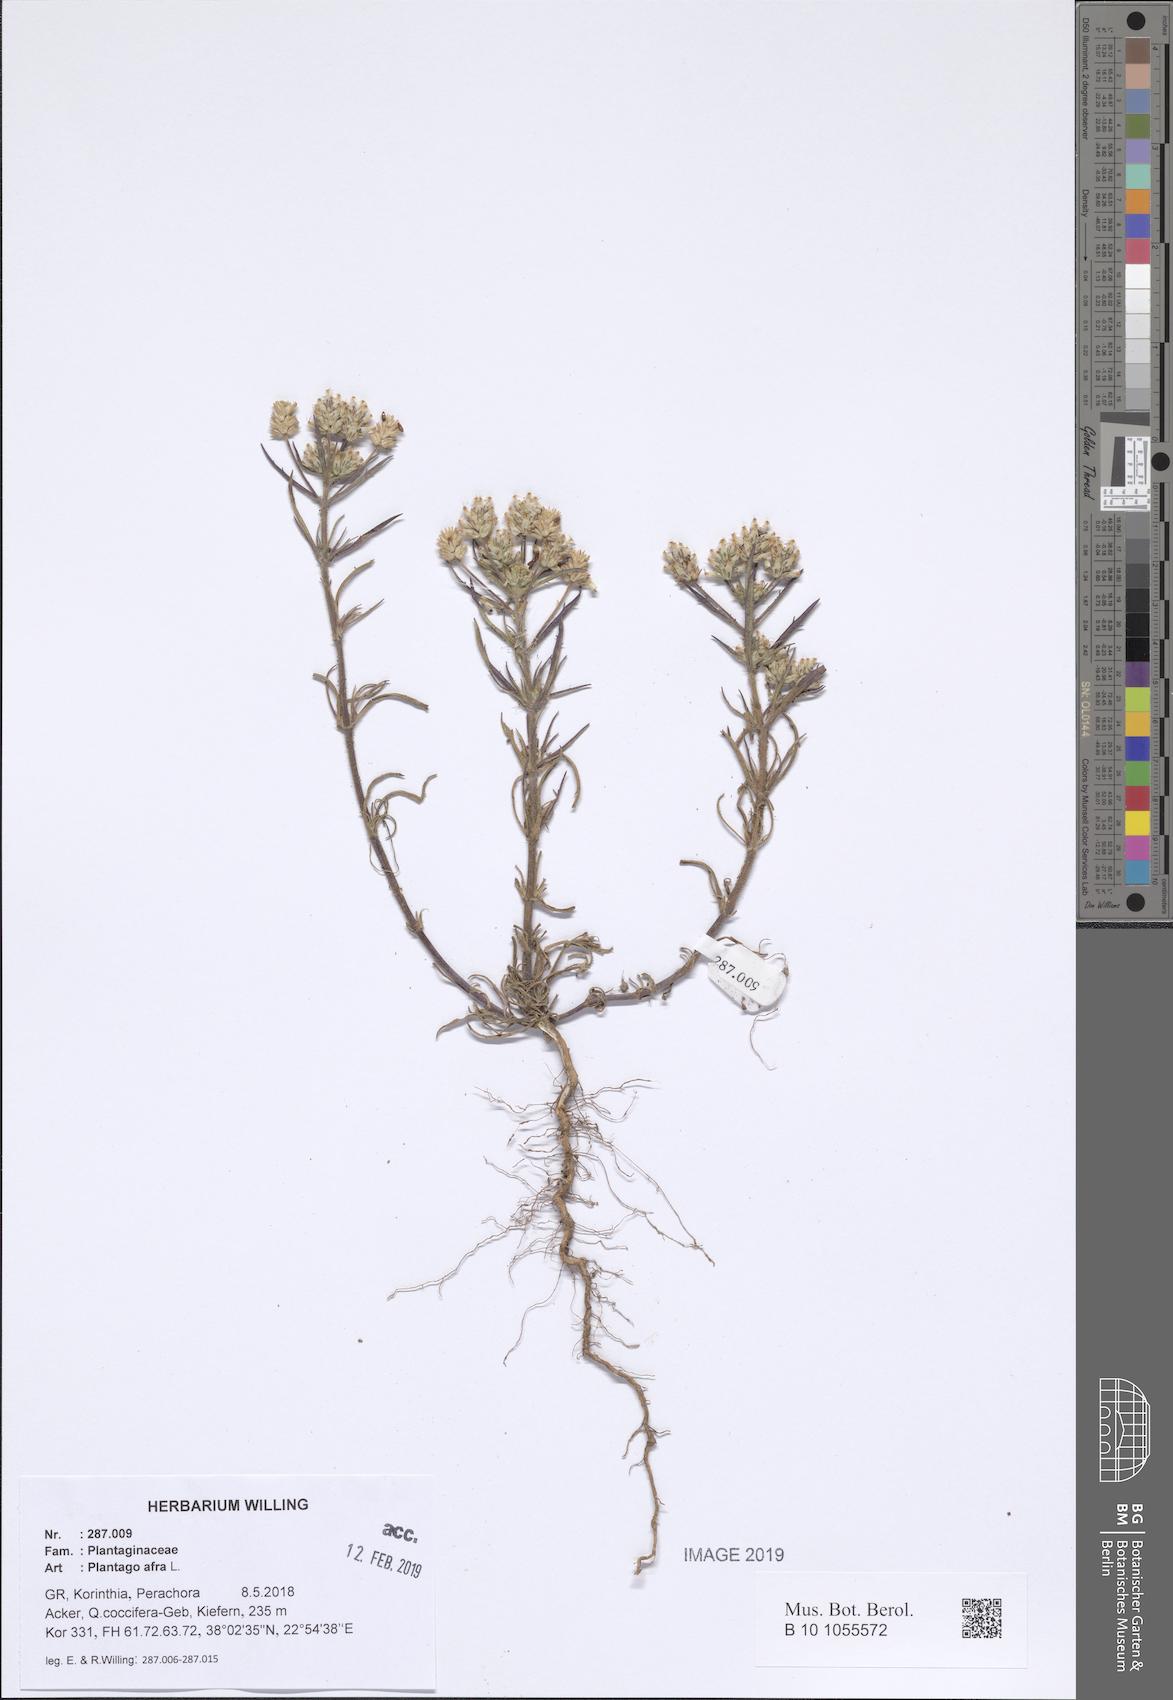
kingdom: Plantae
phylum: Tracheophyta
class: Magnoliopsida
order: Lamiales
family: Plantaginaceae
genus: Plantago
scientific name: Plantago afra
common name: Glandular plantain
